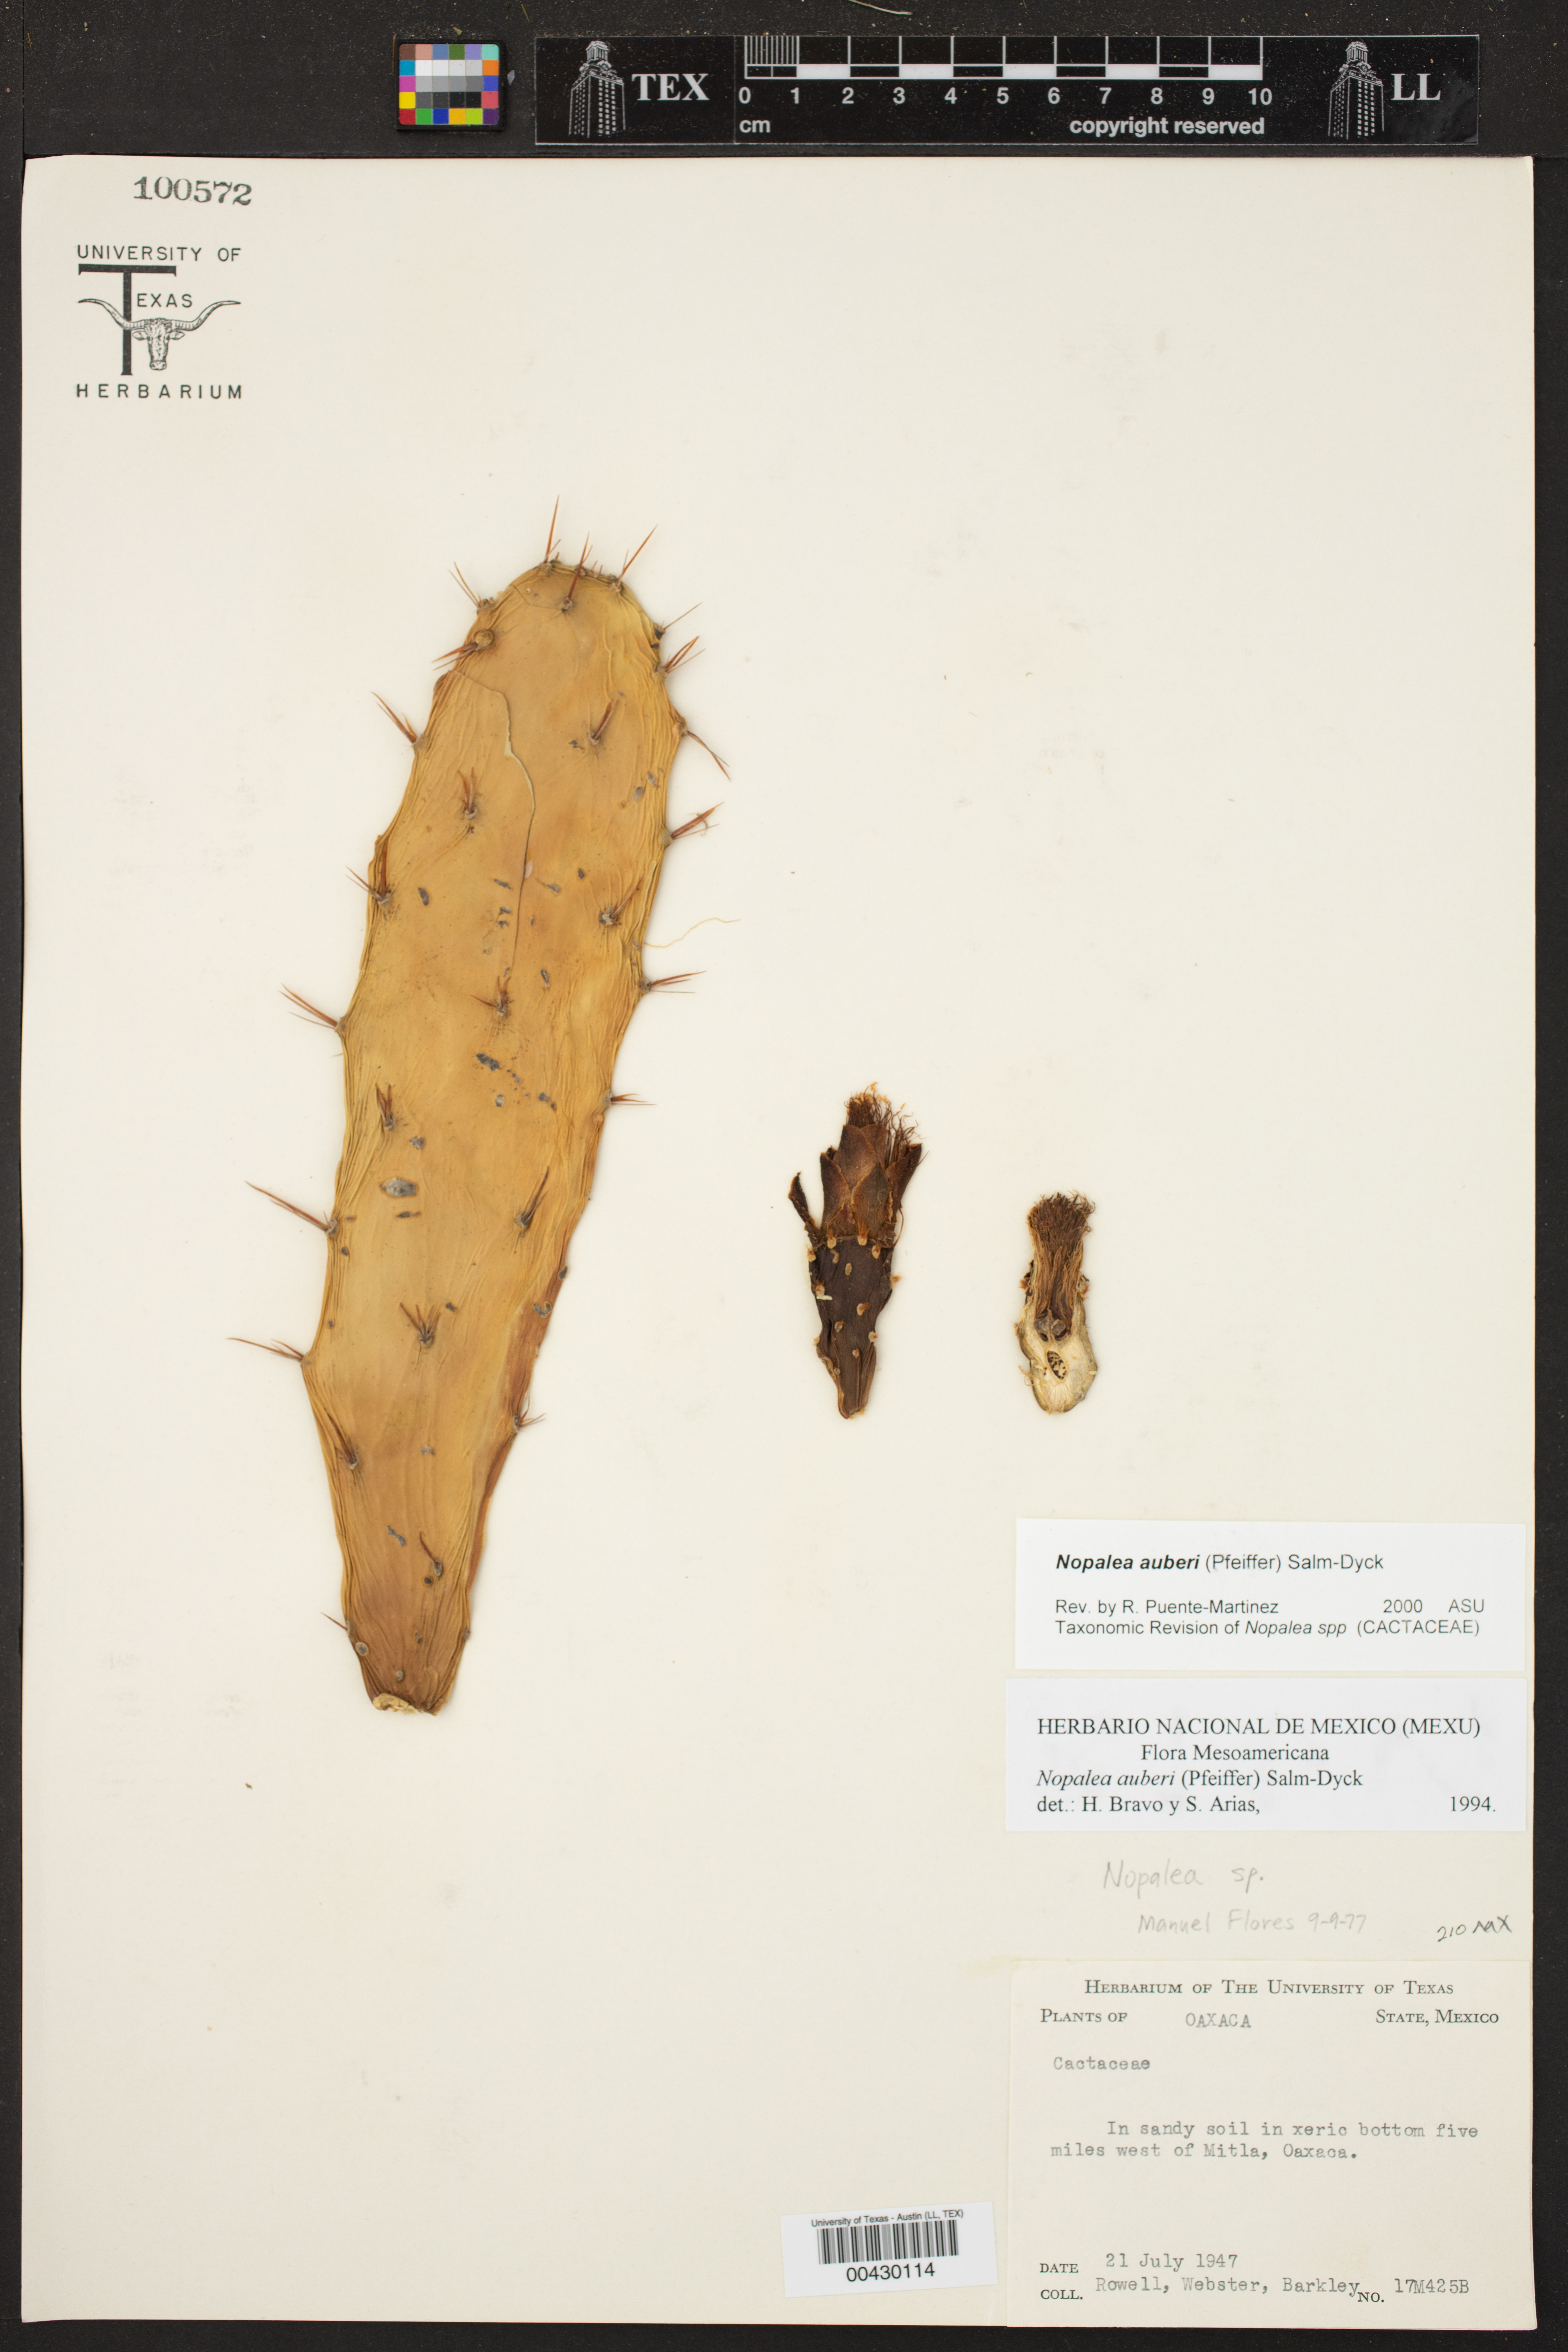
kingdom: Plantae
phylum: Tracheophyta
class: Magnoliopsida
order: Caryophyllales
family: Cactaceae
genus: Opuntia
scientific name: Opuntia auberi
